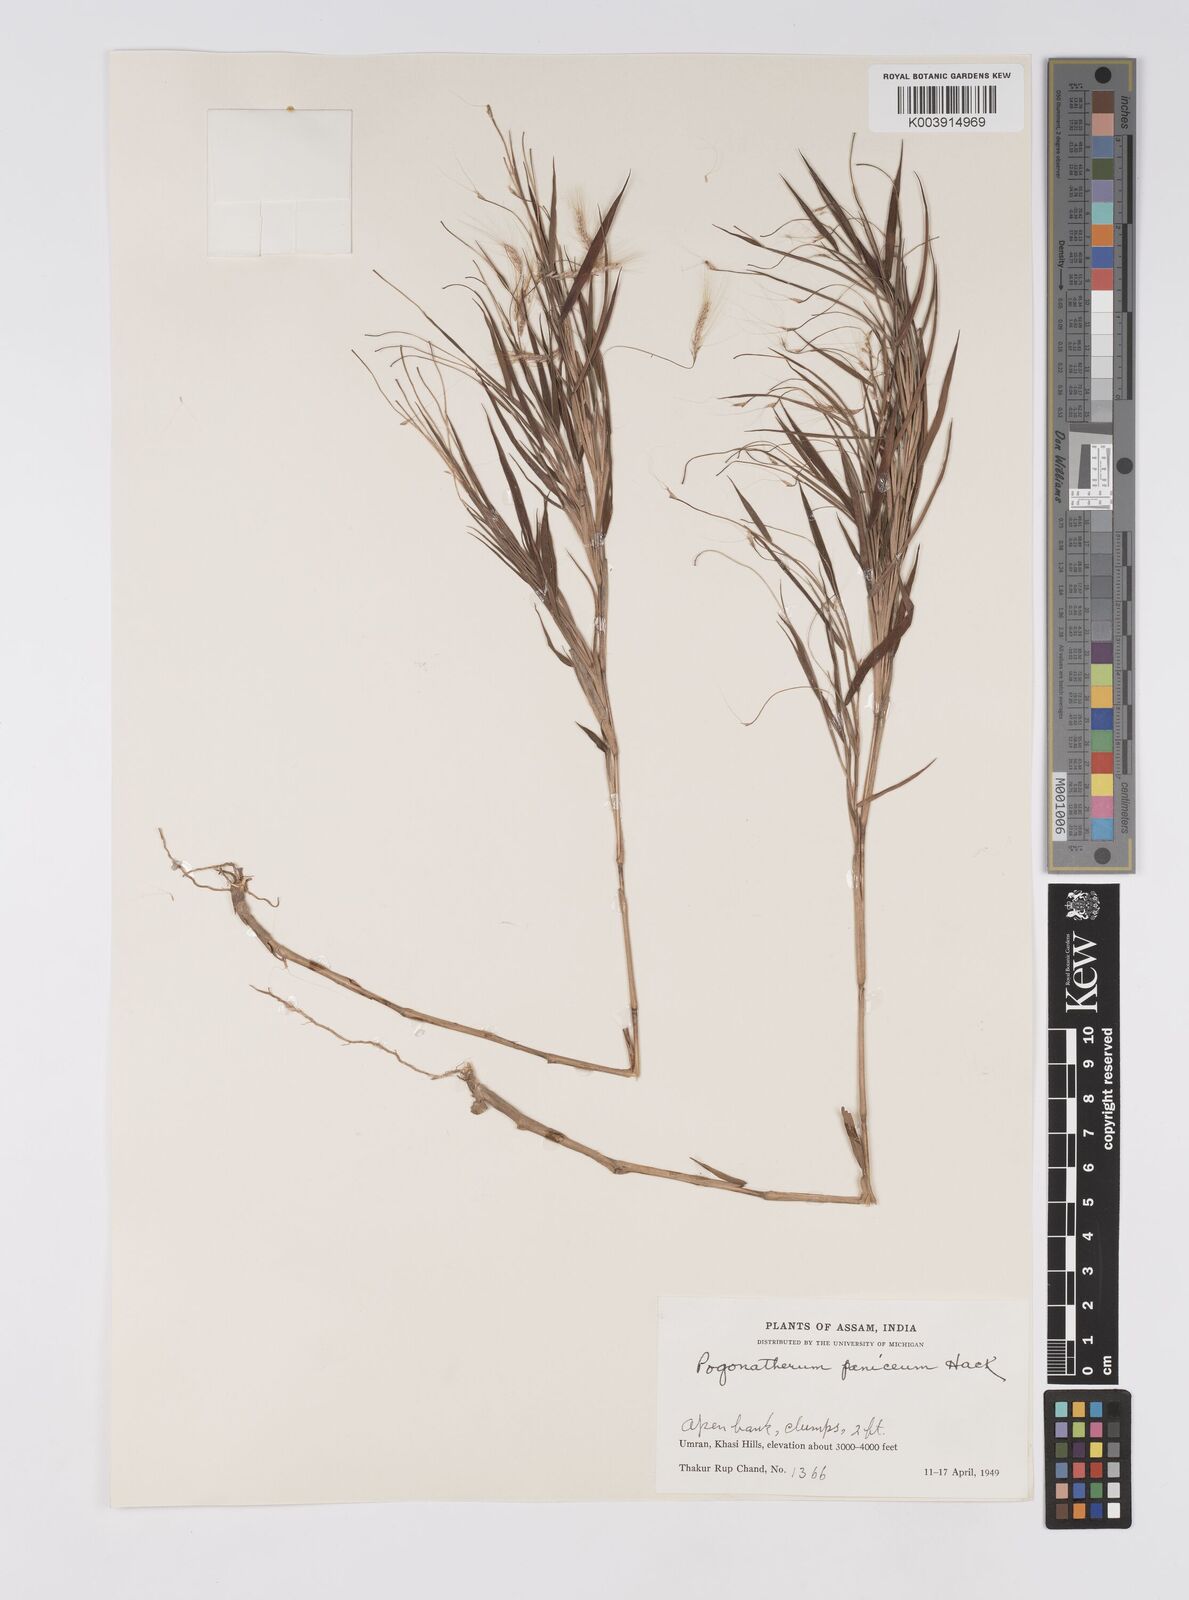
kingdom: Plantae
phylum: Tracheophyta
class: Liliopsida
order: Poales
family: Poaceae
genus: Pogonatherum
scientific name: Pogonatherum paniceum
